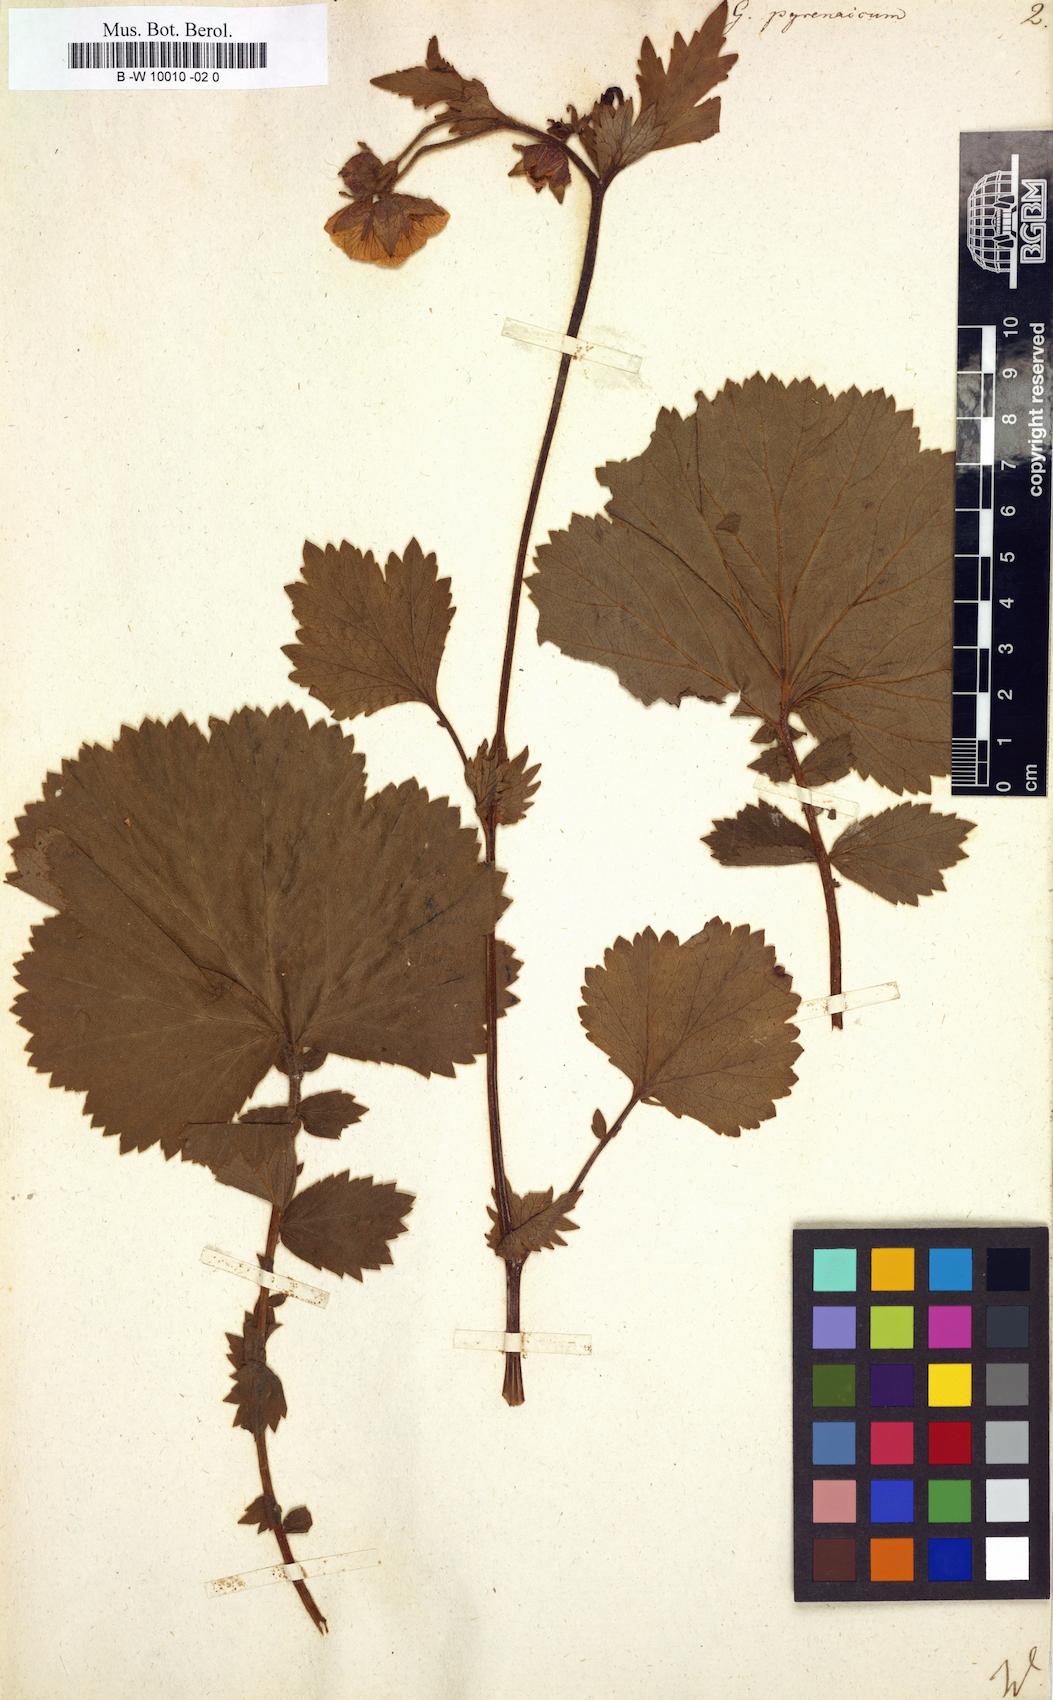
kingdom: Plantae
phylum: Tracheophyta
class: Magnoliopsida
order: Rosales
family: Rosaceae
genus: Geum
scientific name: Geum pyrenaicum
